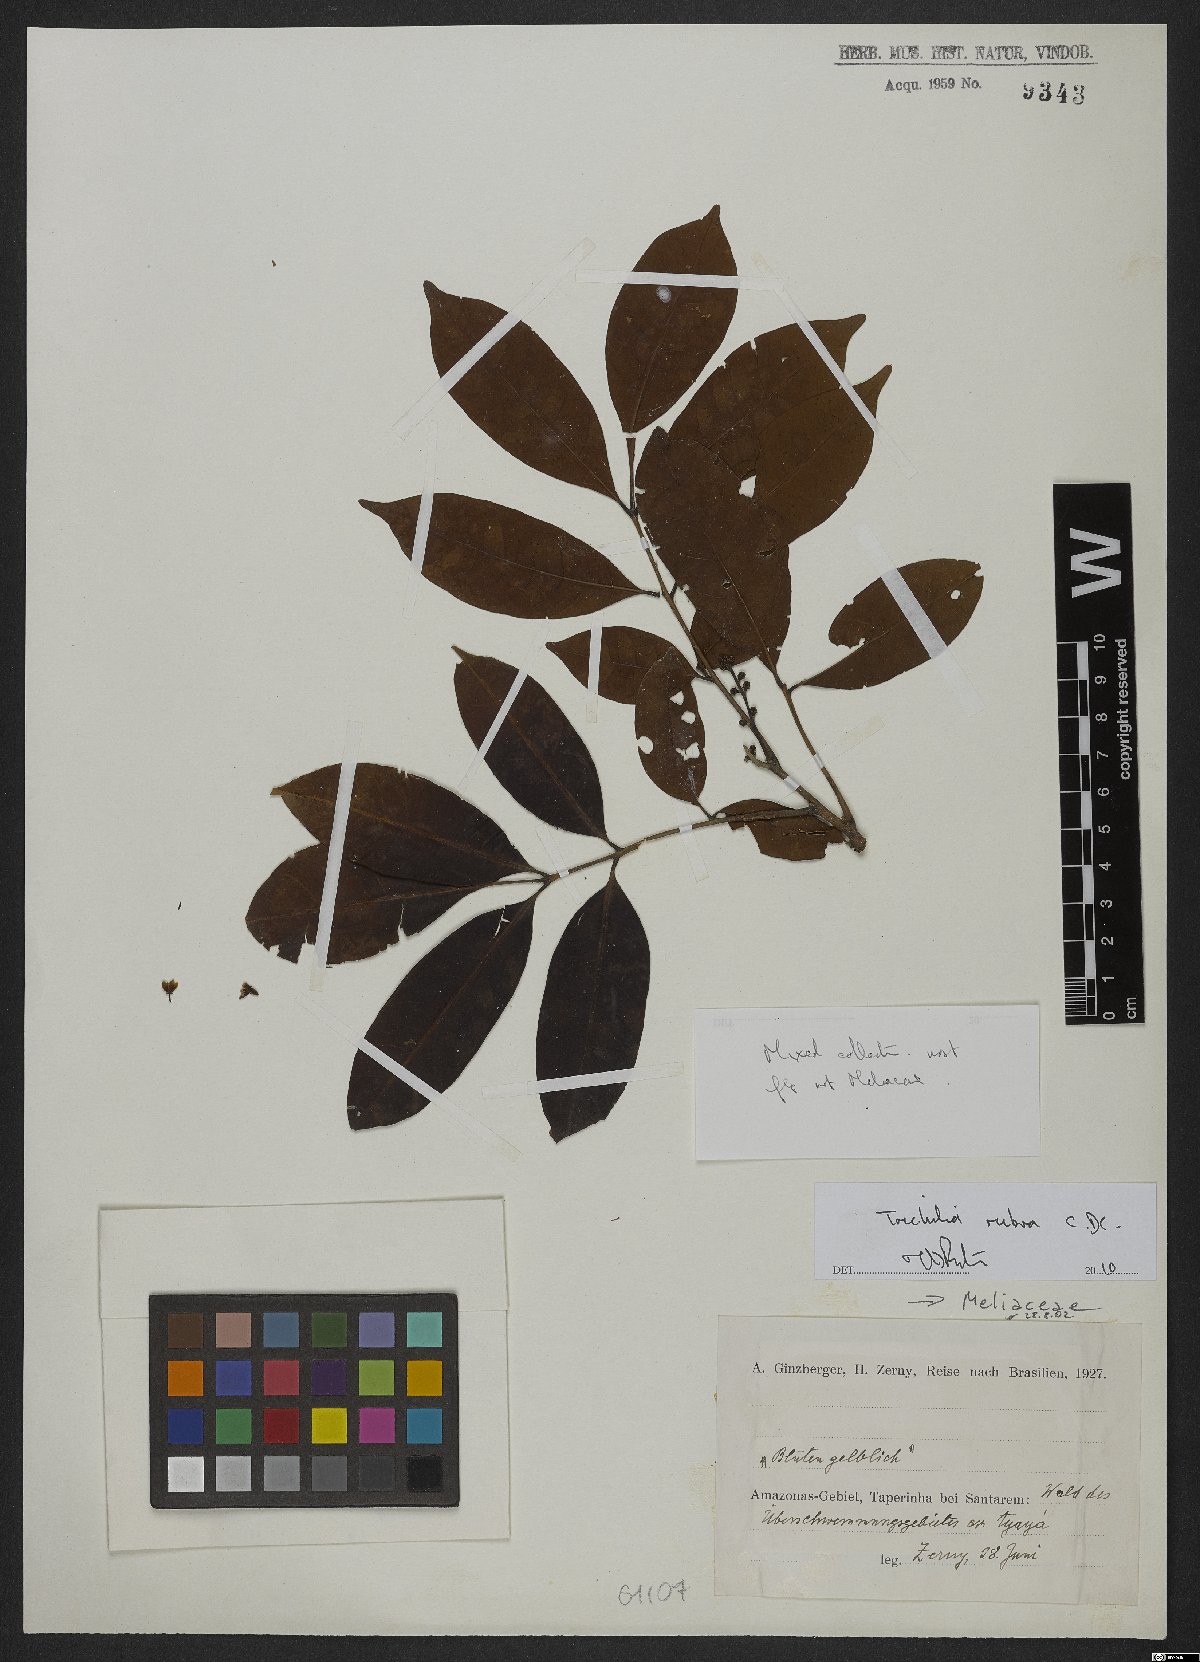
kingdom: Plantae
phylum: Tracheophyta
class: Magnoliopsida
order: Sapindales
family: Meliaceae
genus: Trichilia
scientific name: Trichilia rubra
